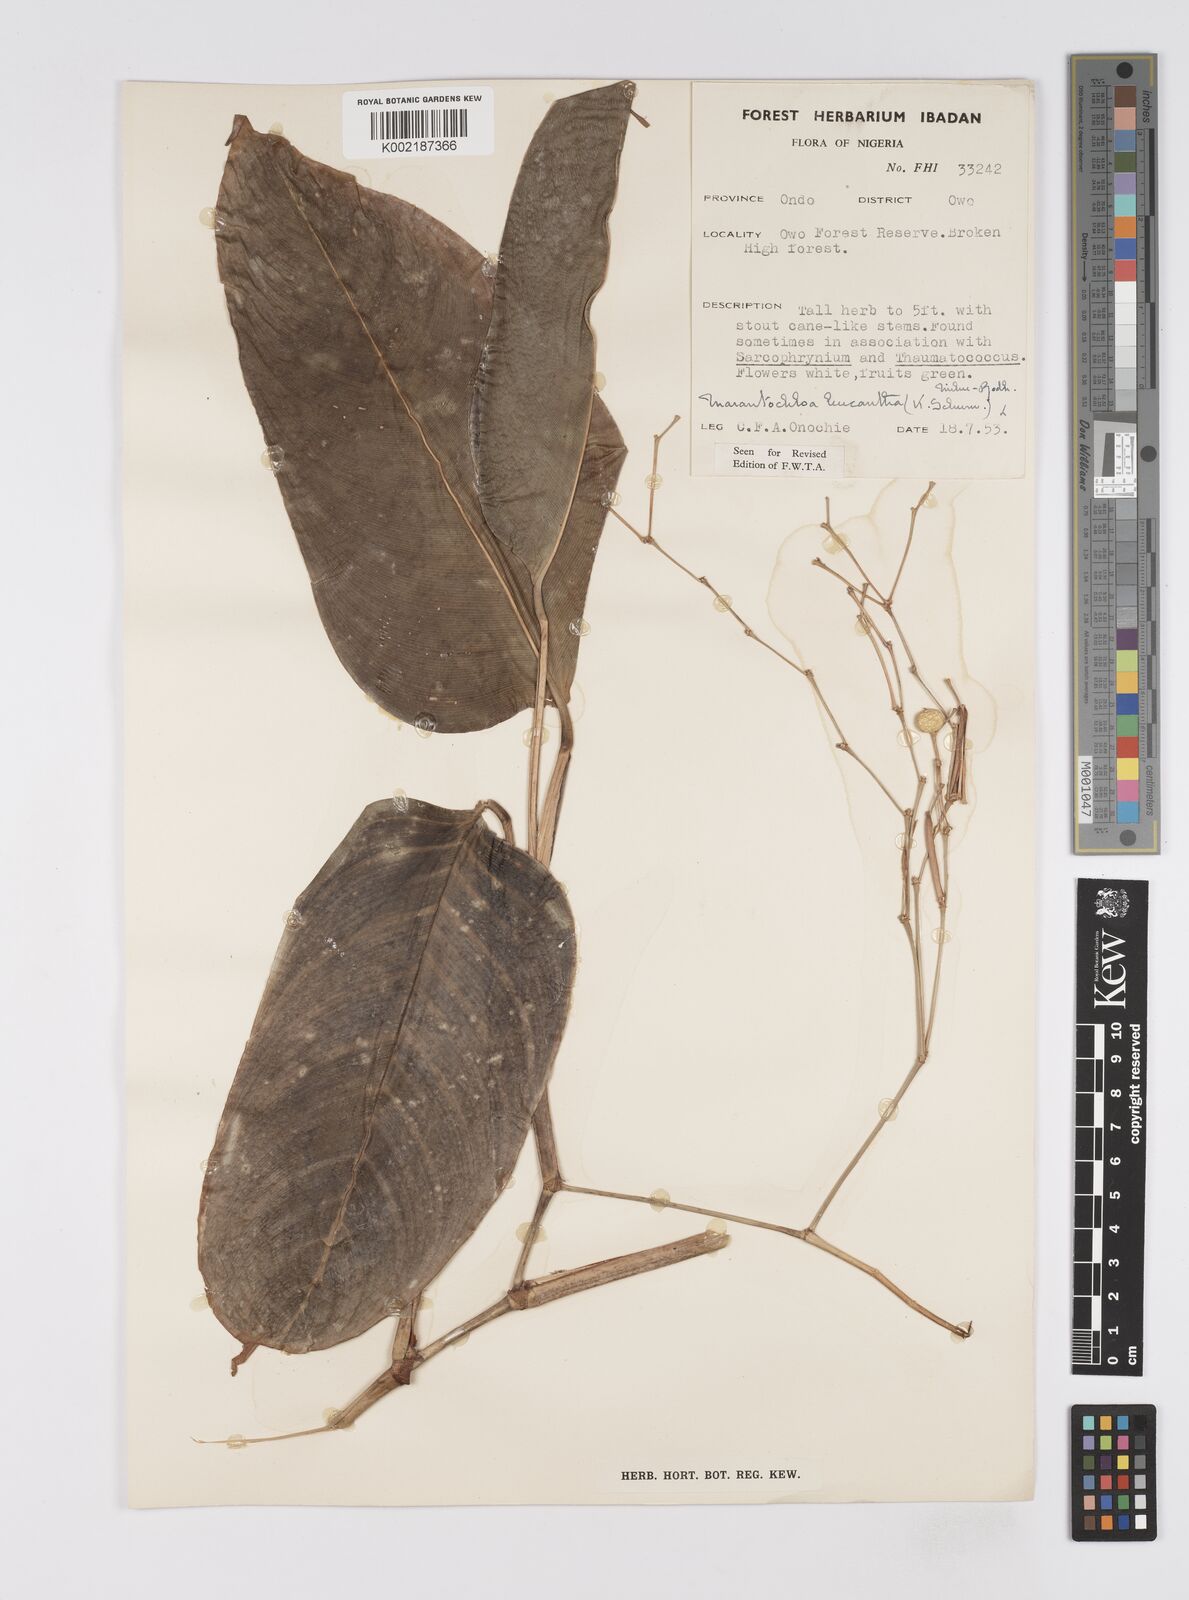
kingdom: Plantae
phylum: Tracheophyta
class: Liliopsida
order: Zingiberales
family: Marantaceae
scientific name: Marantaceae
